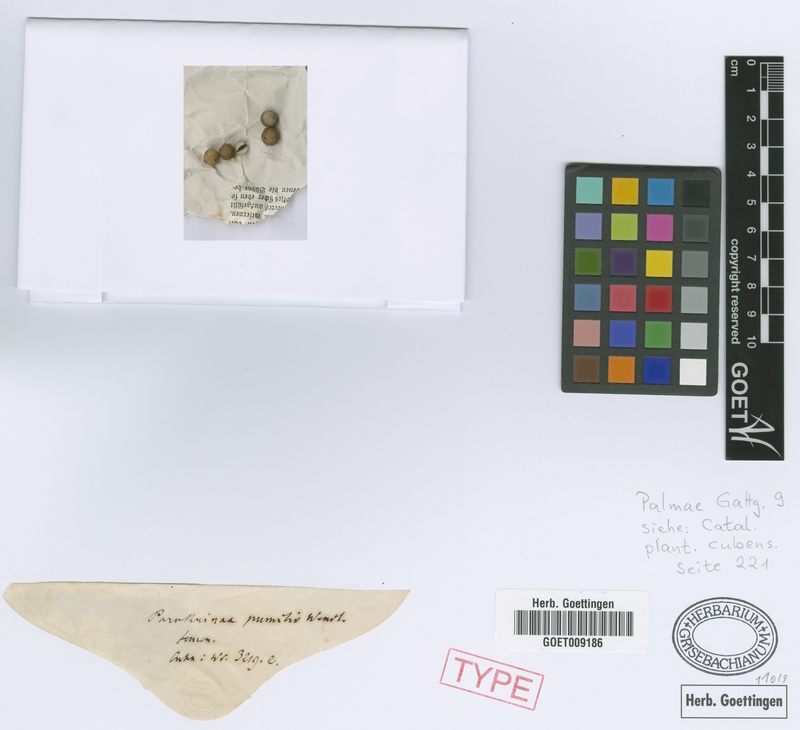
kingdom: Plantae
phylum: Tracheophyta
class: Liliopsida
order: Arecales
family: Arecaceae
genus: Thrinax
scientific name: Thrinax radiata
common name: Florida thatch
